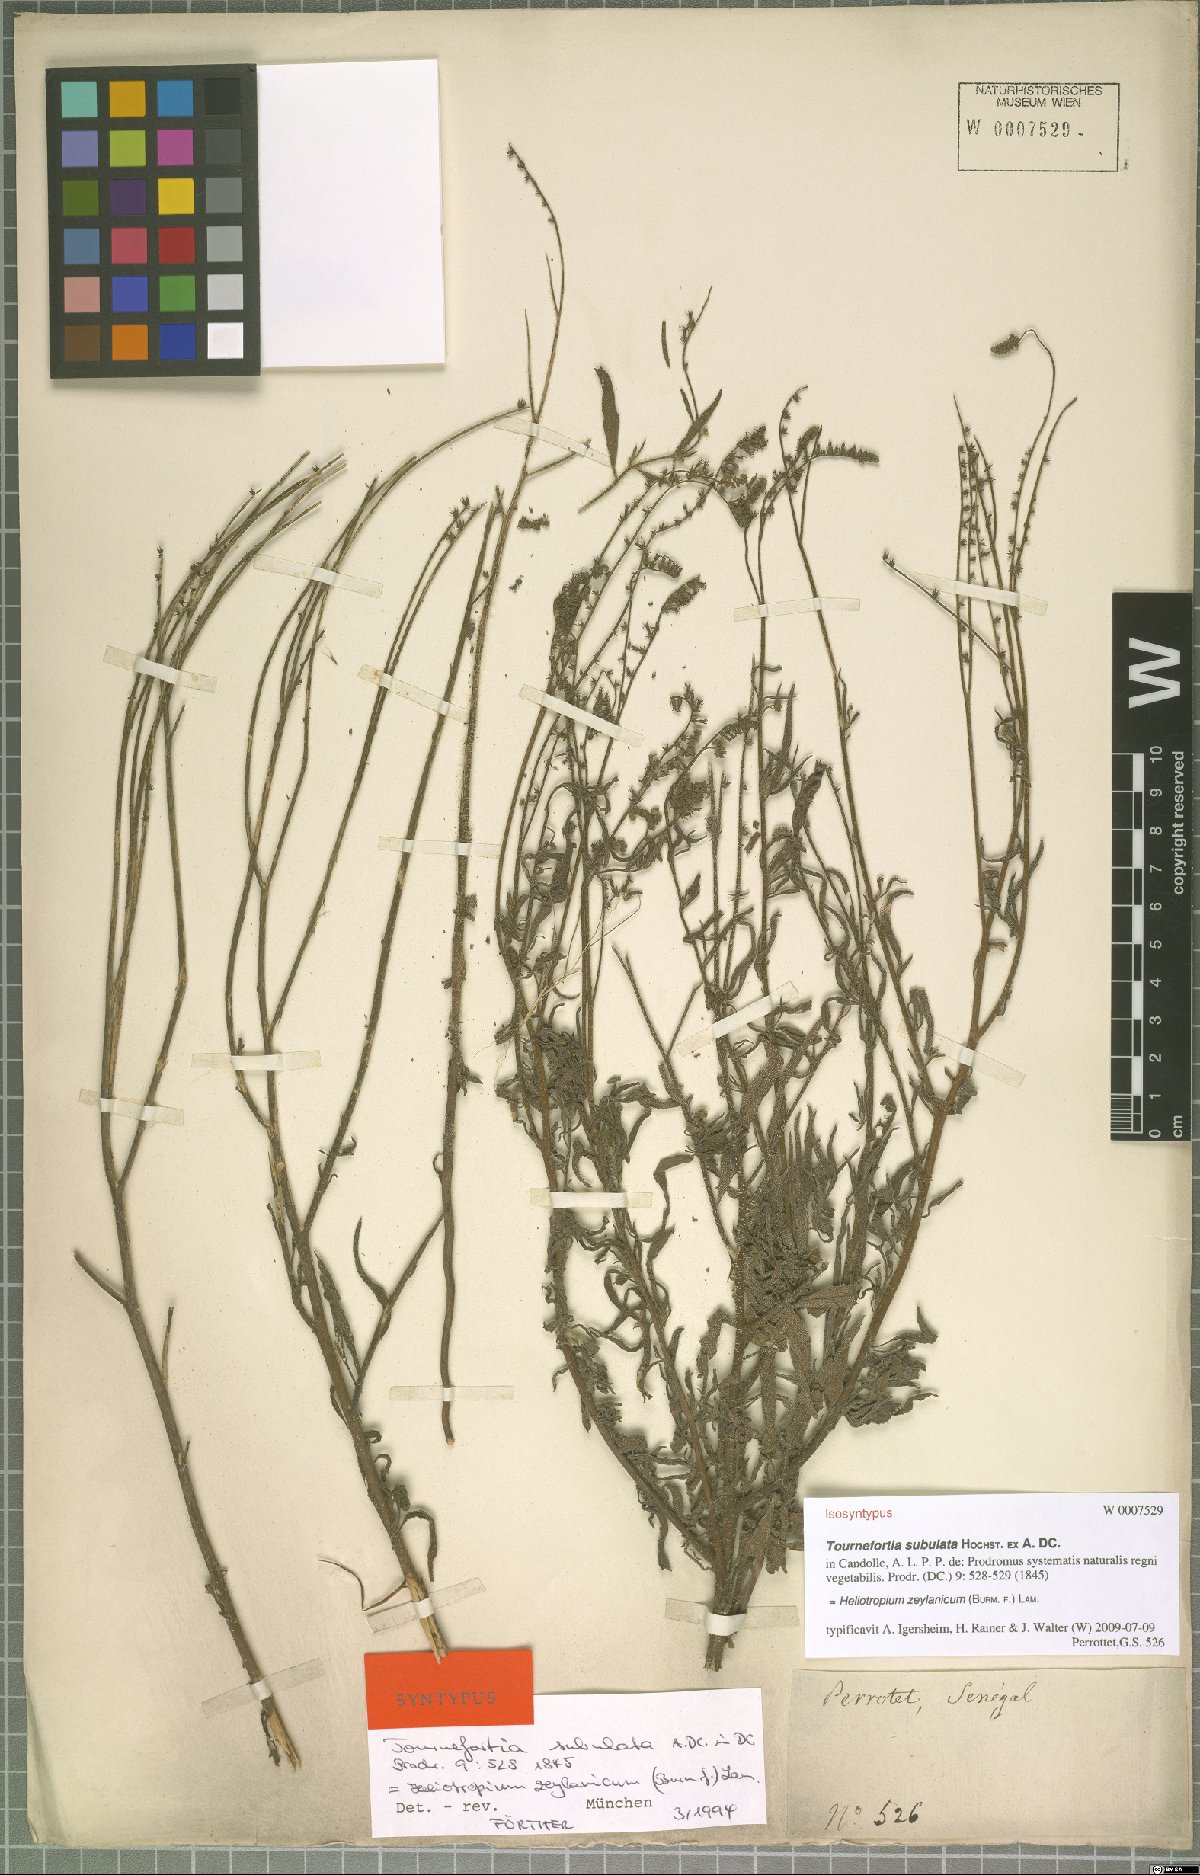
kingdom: Plantae
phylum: Tracheophyta
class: Magnoliopsida
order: Boraginales
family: Heliotropiaceae
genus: Heliotropium
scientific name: Heliotropium zeylanicum
